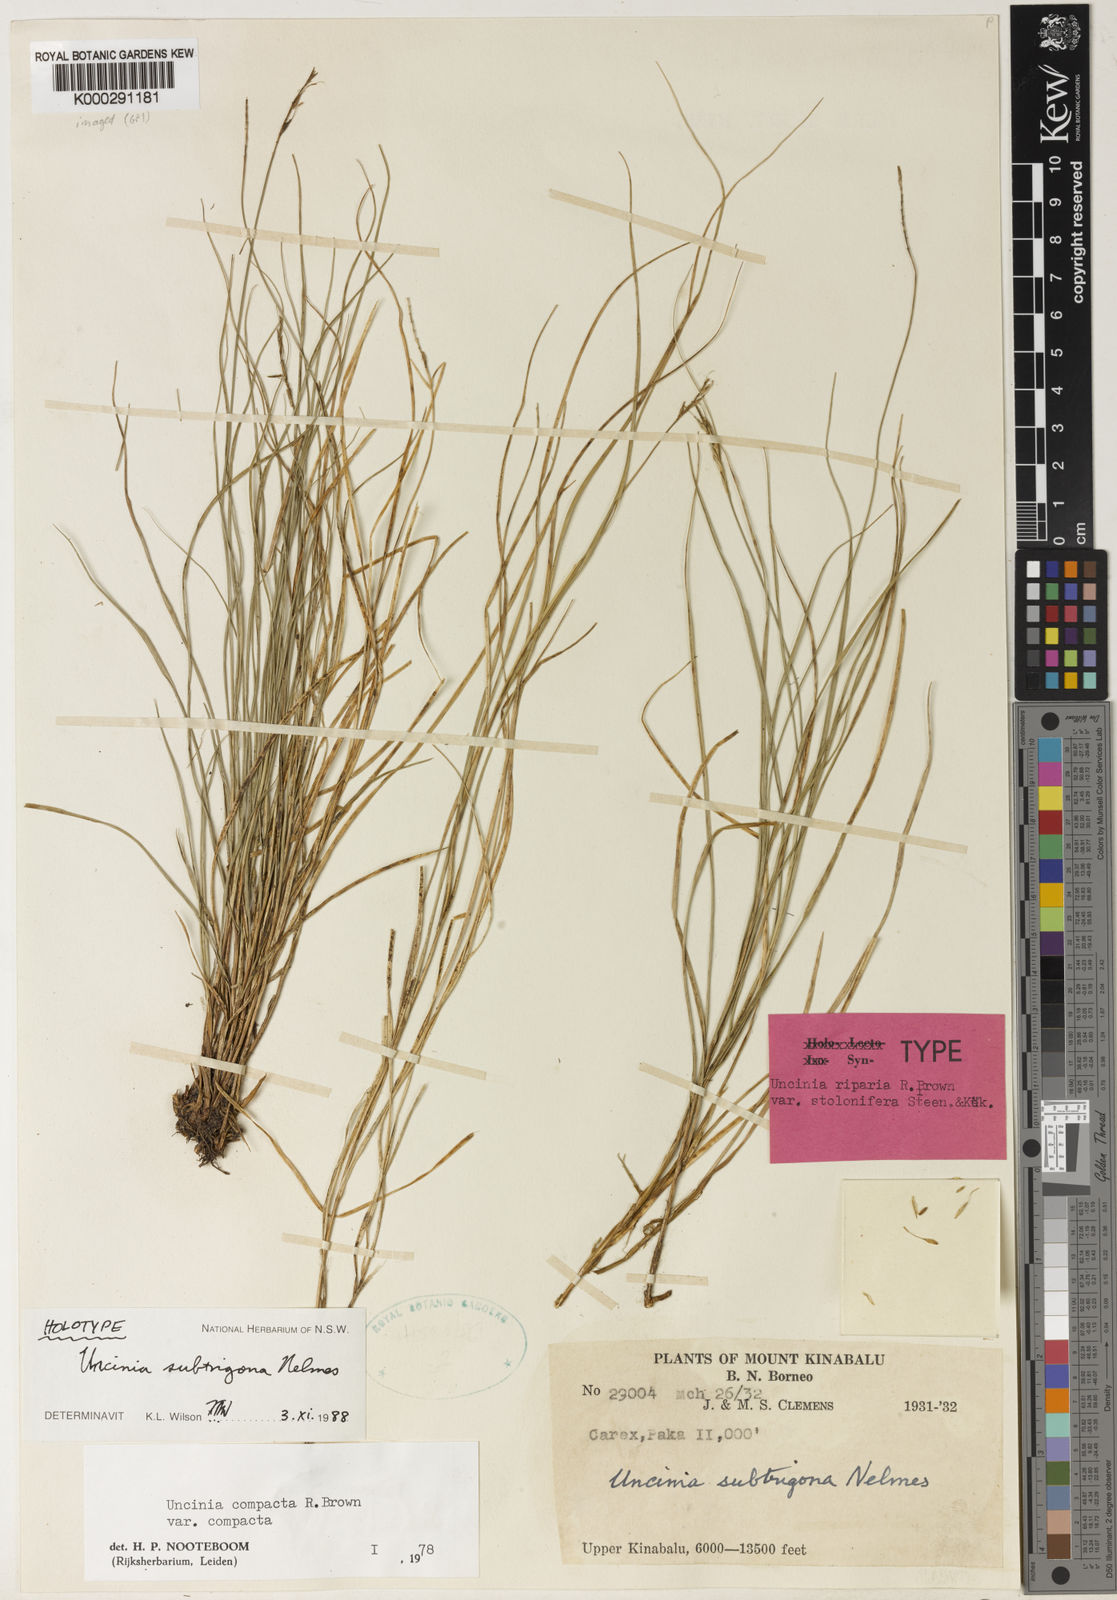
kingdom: Plantae
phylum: Tracheophyta
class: Liliopsida
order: Poales
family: Cyperaceae
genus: Carex
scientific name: Carex austrocompacta
